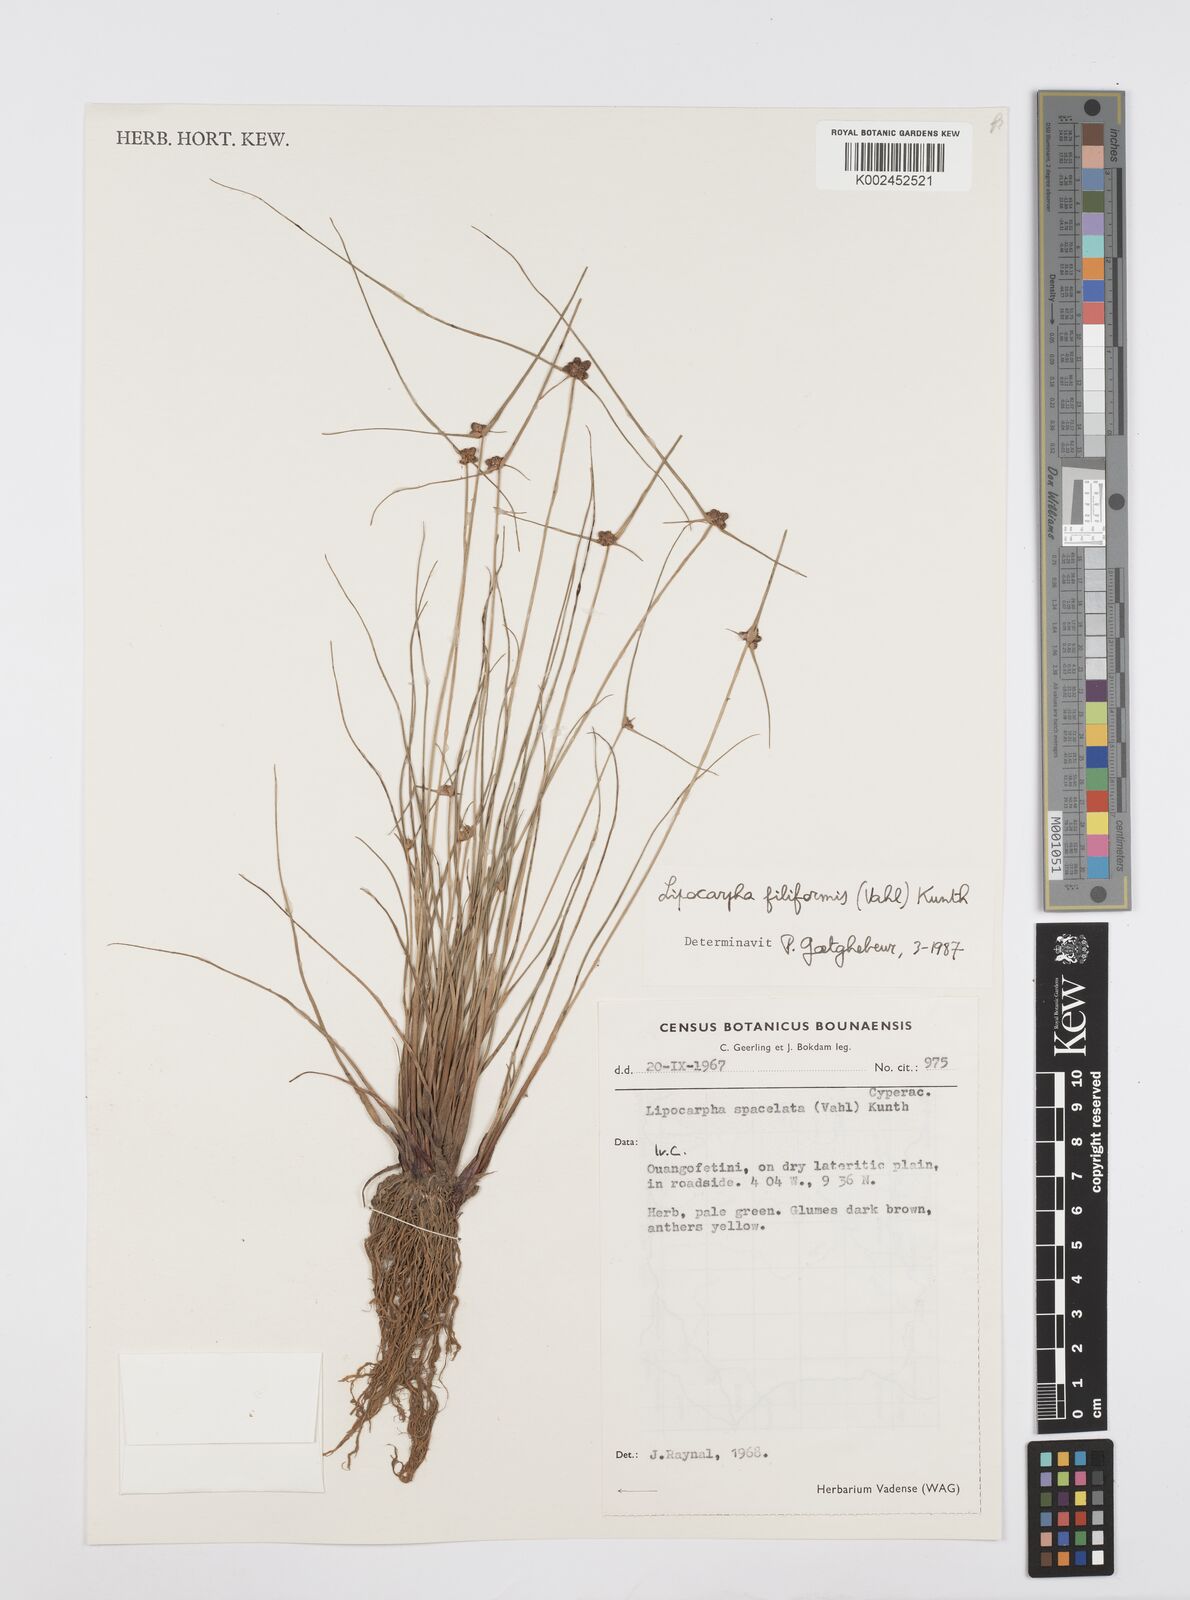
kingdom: Plantae
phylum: Tracheophyta
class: Liliopsida
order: Poales
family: Cyperaceae
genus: Cyperus
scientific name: Cyperus filiformis
